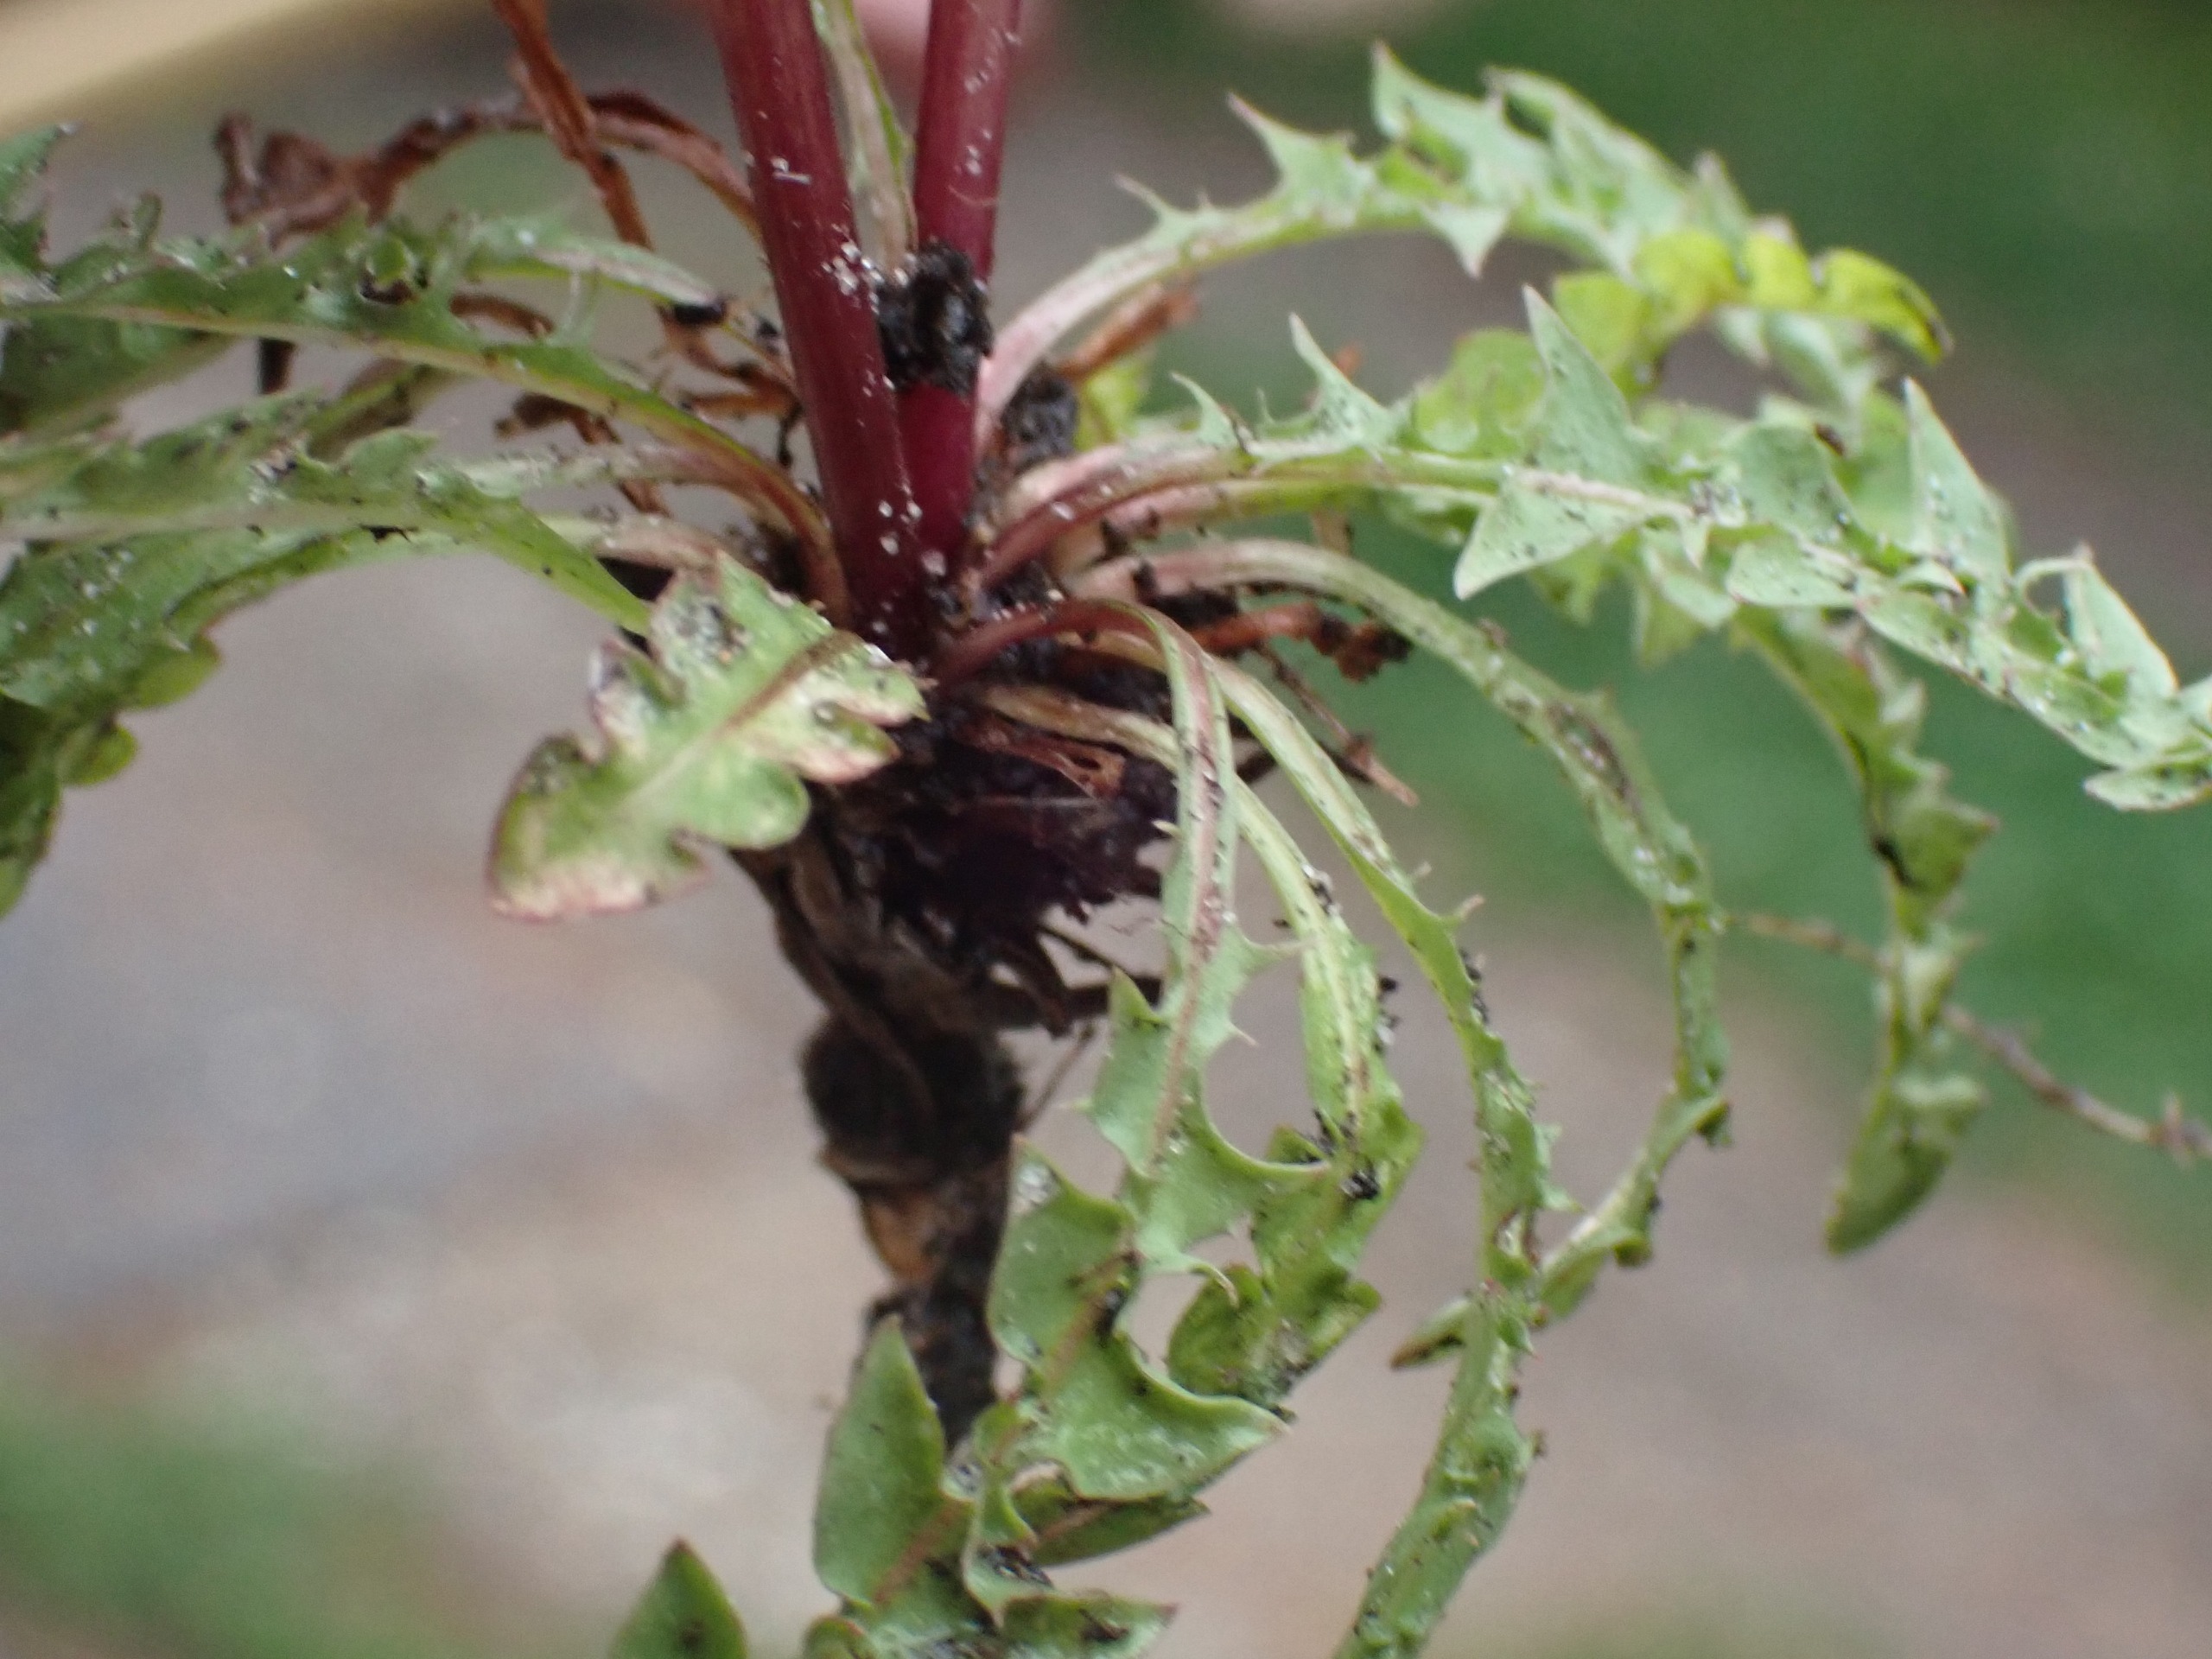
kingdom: Plantae
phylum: Tracheophyta
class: Magnoliopsida
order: Asterales
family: Asteraceae
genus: Taraxacum
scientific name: Taraxacum obliquum
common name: Gråfrugtet dværgmælkebøtte
